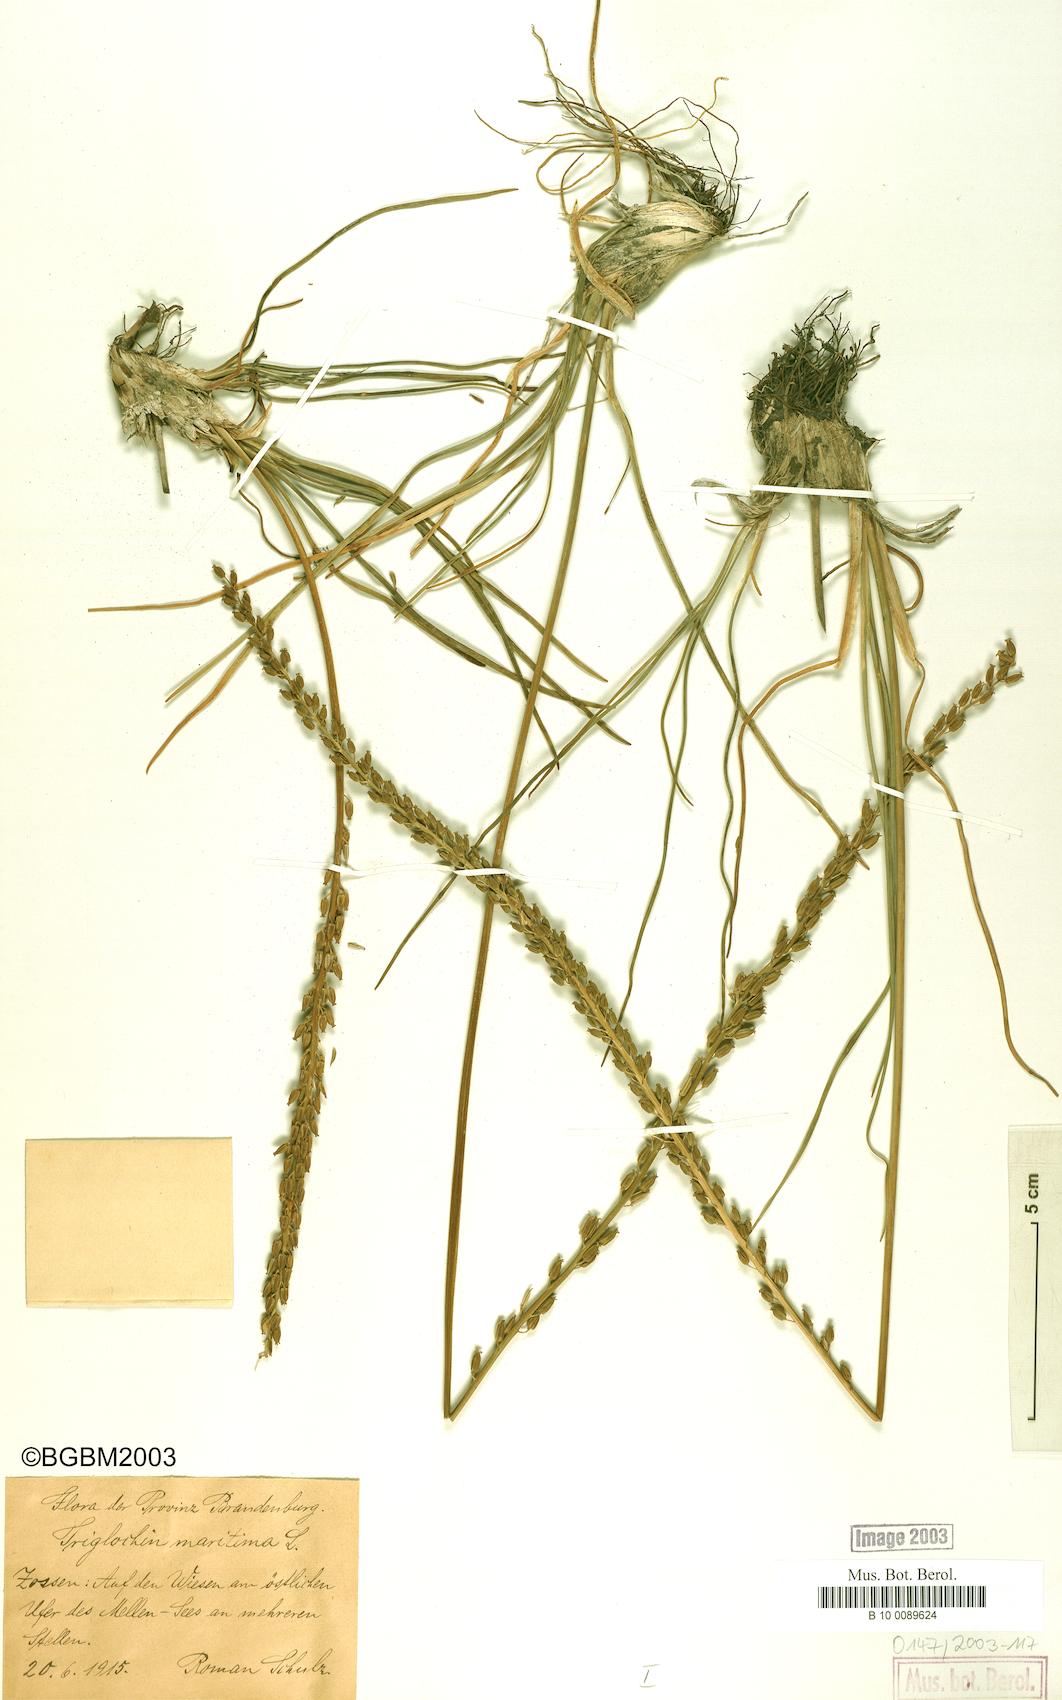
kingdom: Plantae
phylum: Tracheophyta
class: Liliopsida
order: Alismatales
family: Juncaginaceae
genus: Triglochin
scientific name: Triglochin maritima
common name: Sea arrowgrass
